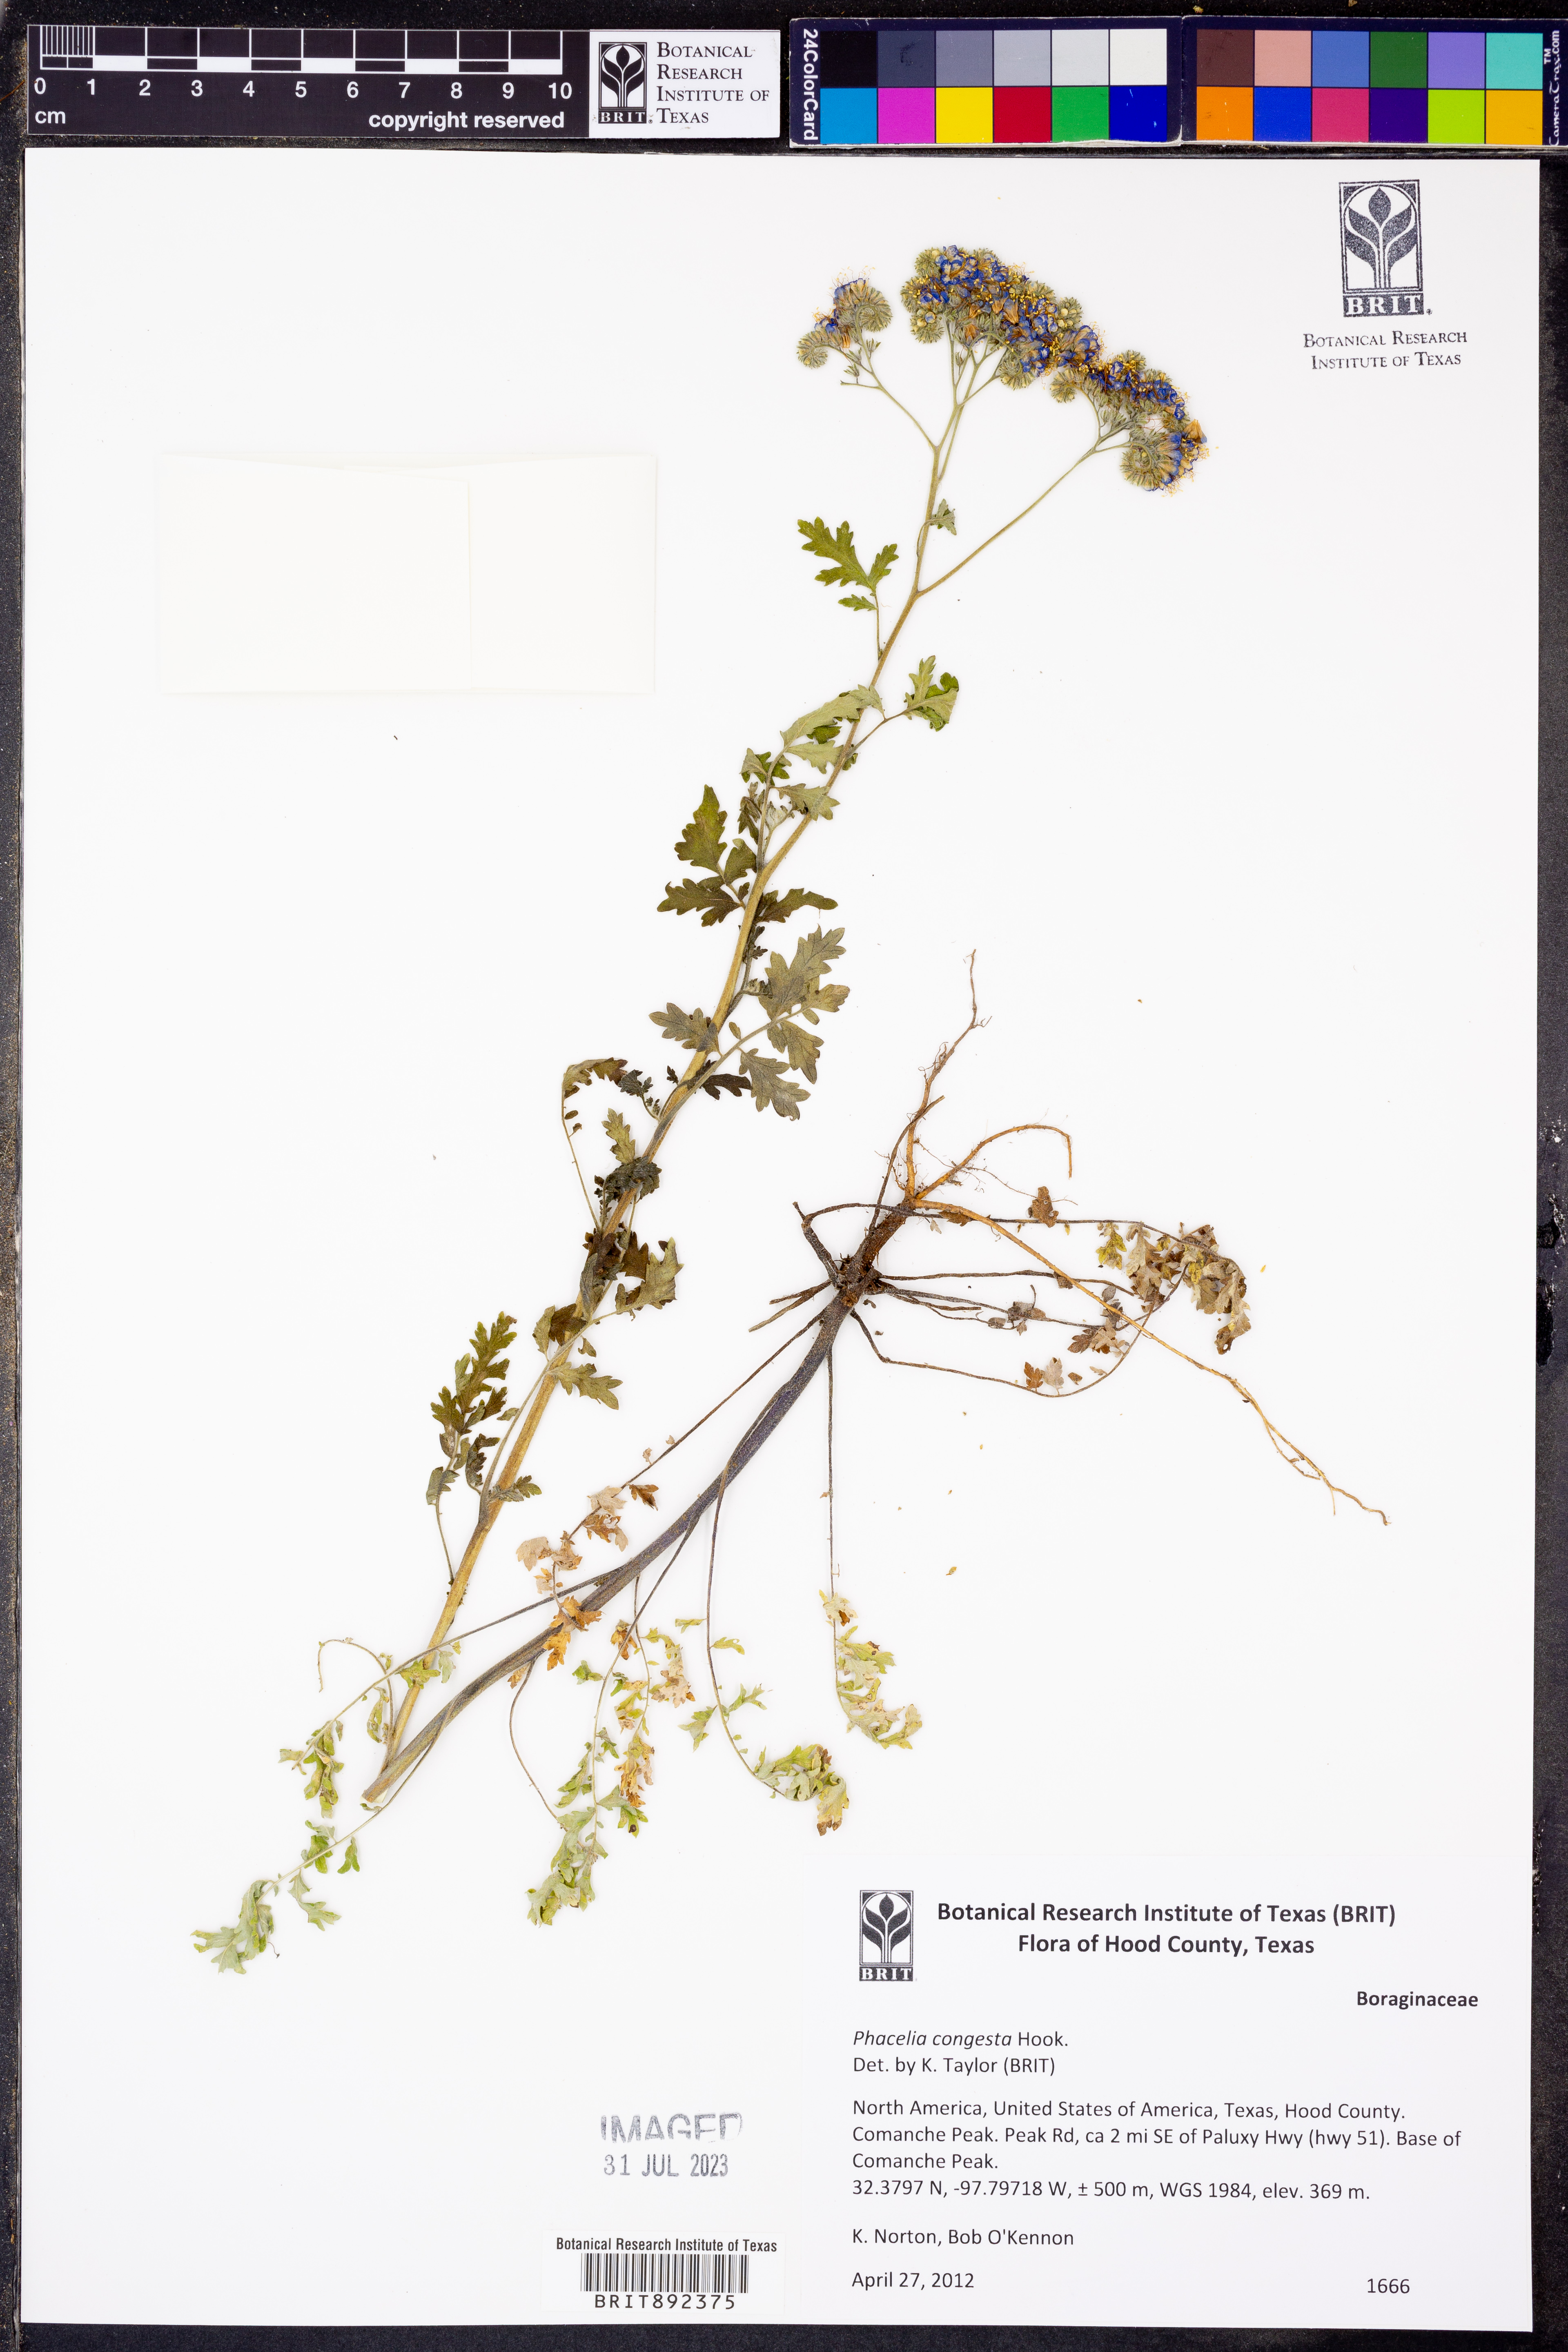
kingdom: Plantae
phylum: Tracheophyta
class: Magnoliopsida
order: Boraginales
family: Hydrophyllaceae
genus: Phacelia
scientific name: Phacelia congesta
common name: Blue curls
